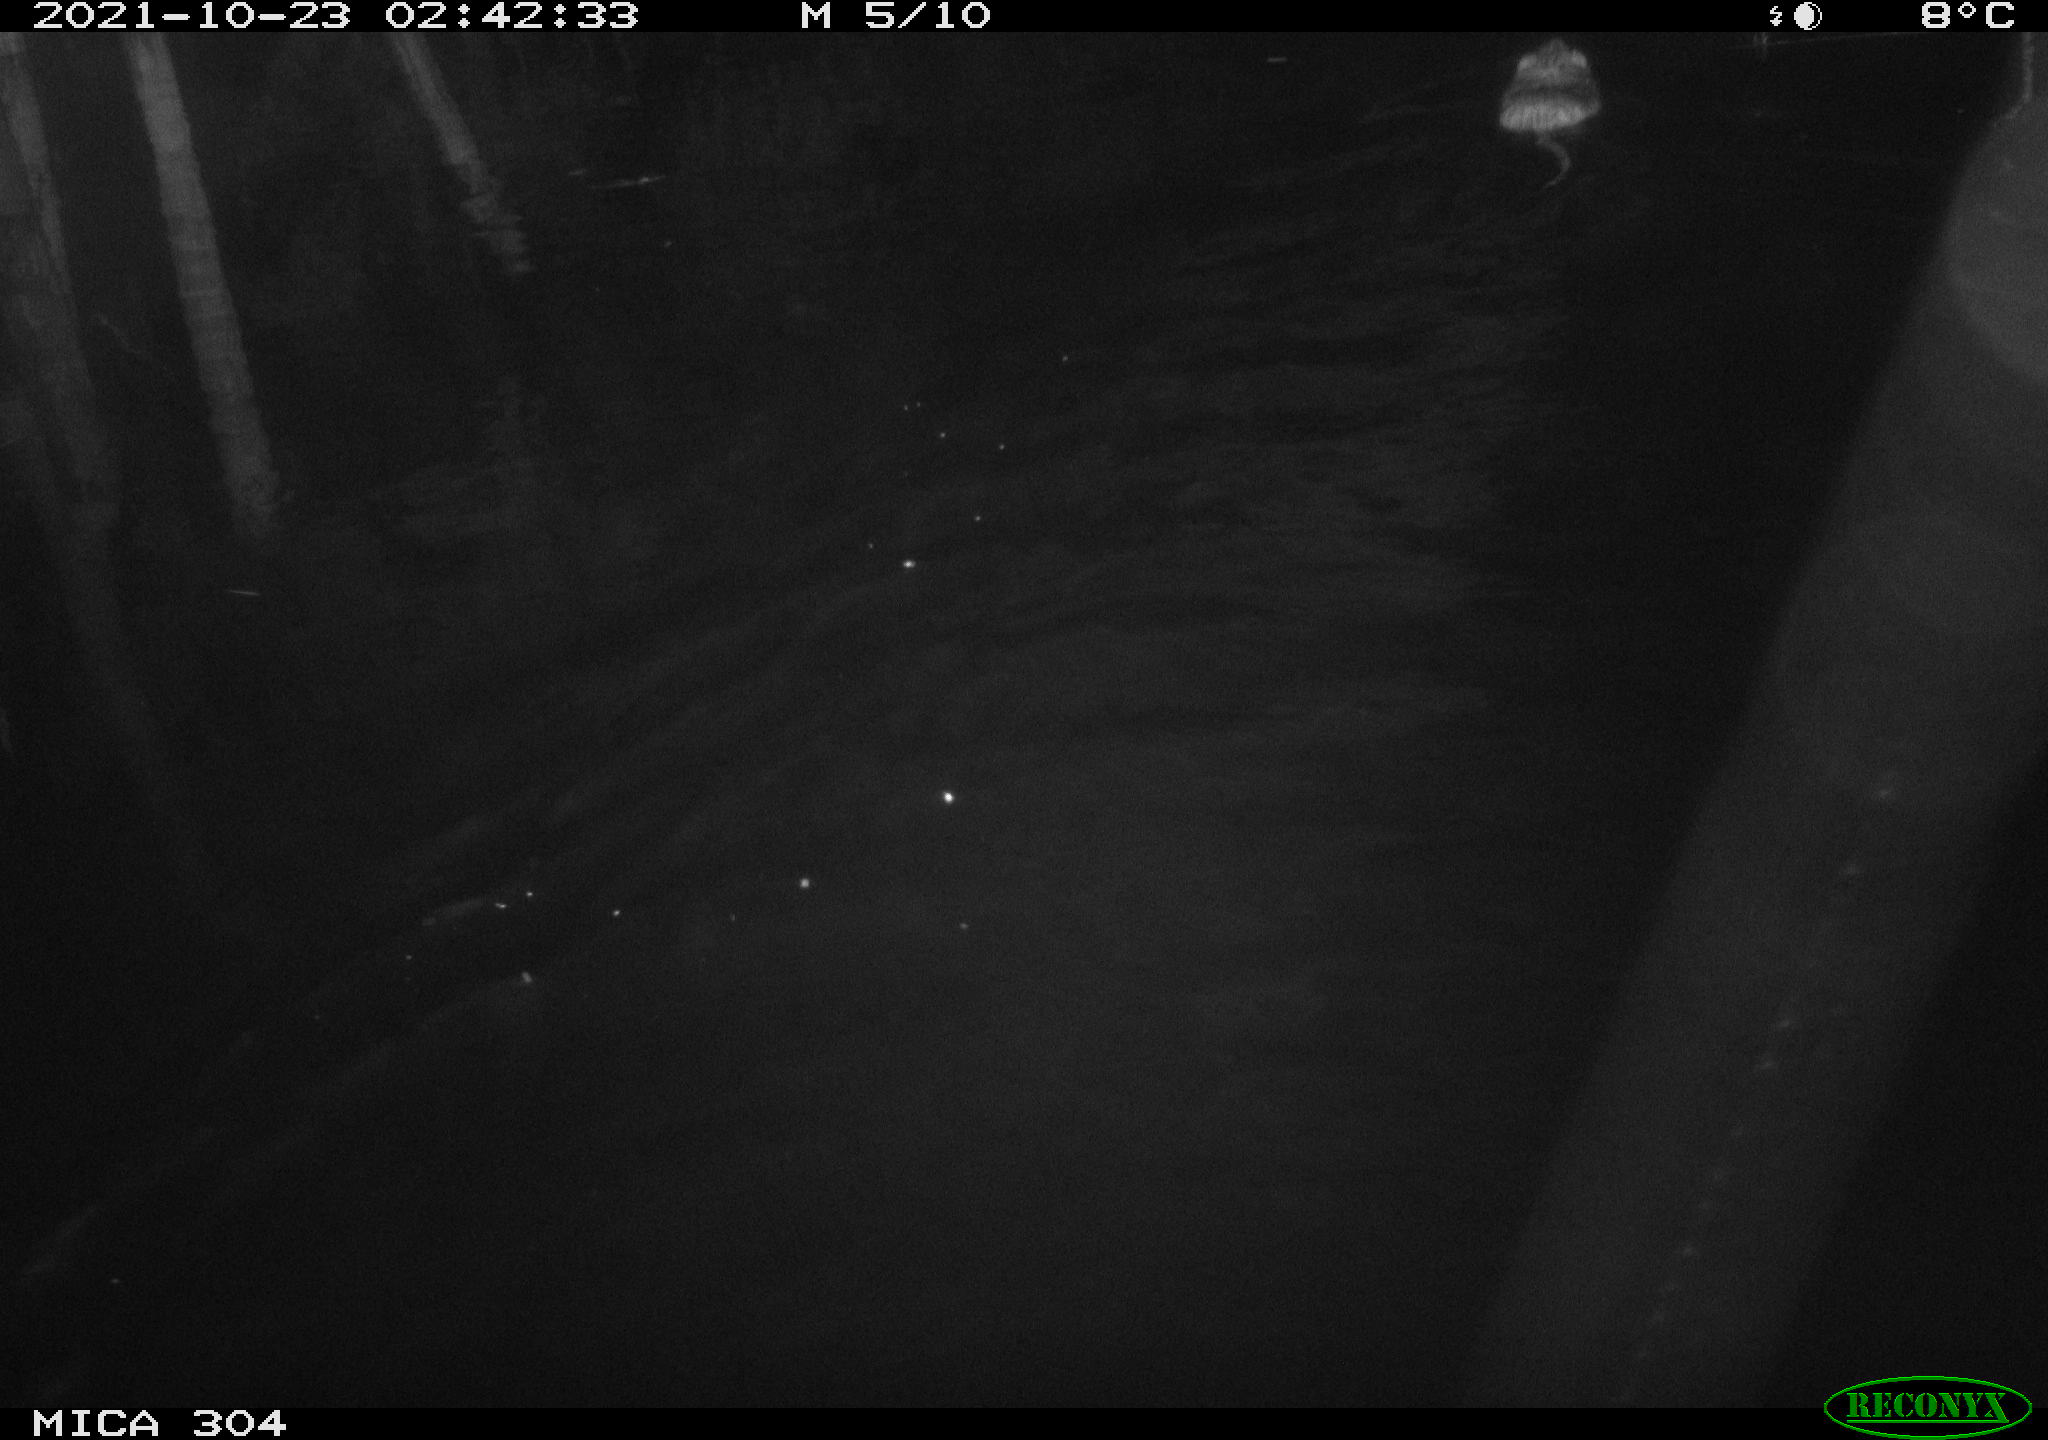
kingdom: Animalia
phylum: Chordata
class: Mammalia
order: Rodentia
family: Muridae
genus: Rattus
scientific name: Rattus norvegicus
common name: Brown rat
